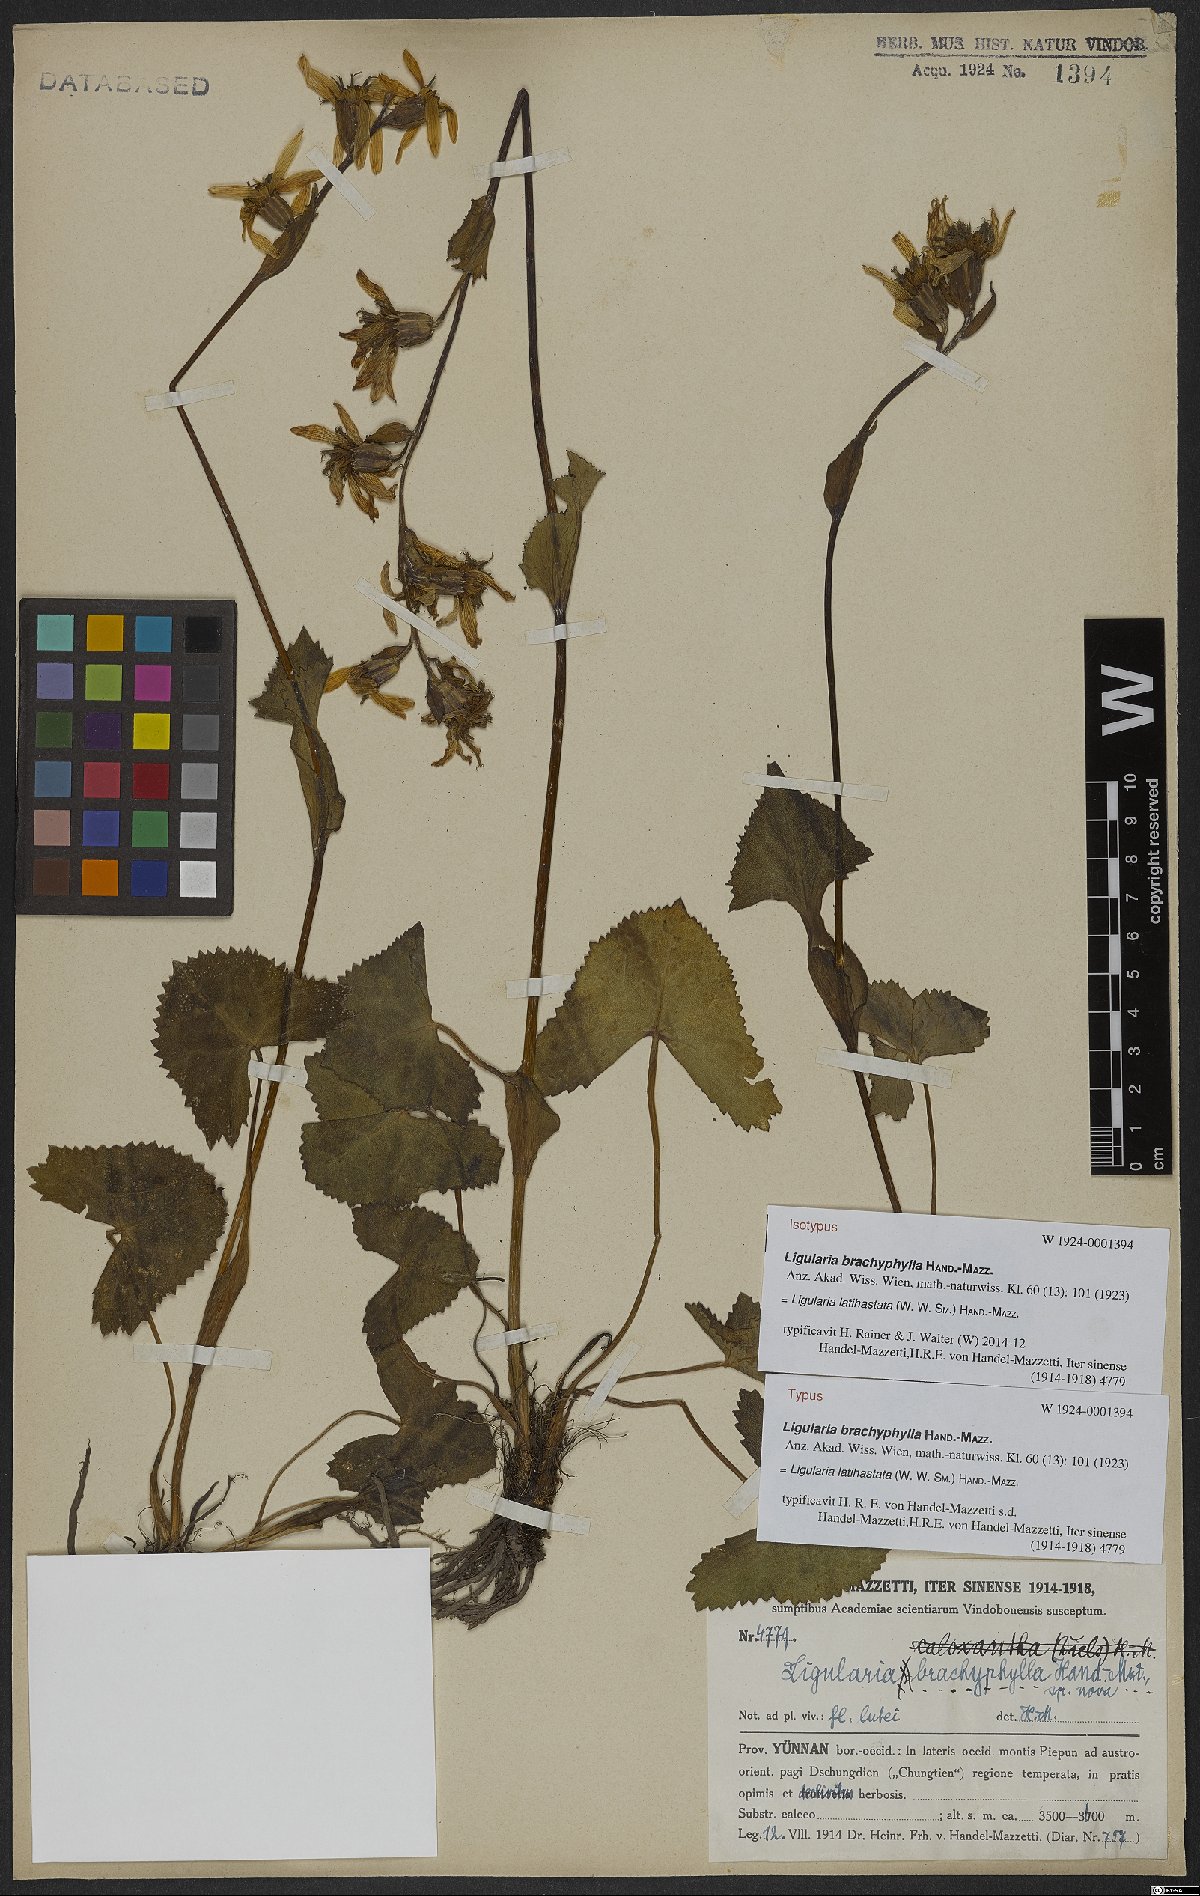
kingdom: Plantae
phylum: Tracheophyta
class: Magnoliopsida
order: Asterales
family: Asteraceae
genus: Ligularia
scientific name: Ligularia latihastata
